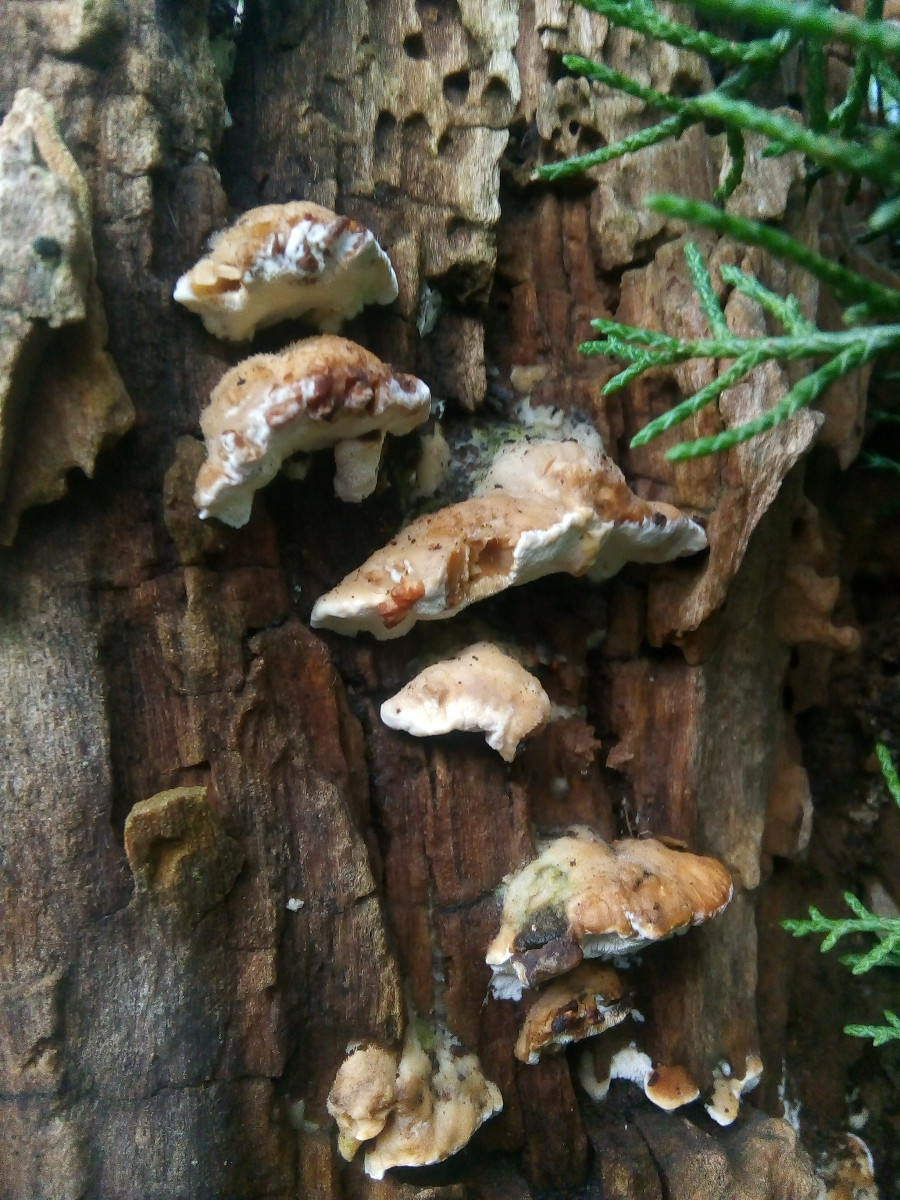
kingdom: Fungi
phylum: Basidiomycota
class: Agaricomycetes
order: Polyporales
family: Phanerochaetaceae
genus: Bjerkandera
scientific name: Bjerkandera fumosa
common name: grågul sodporesvamp
